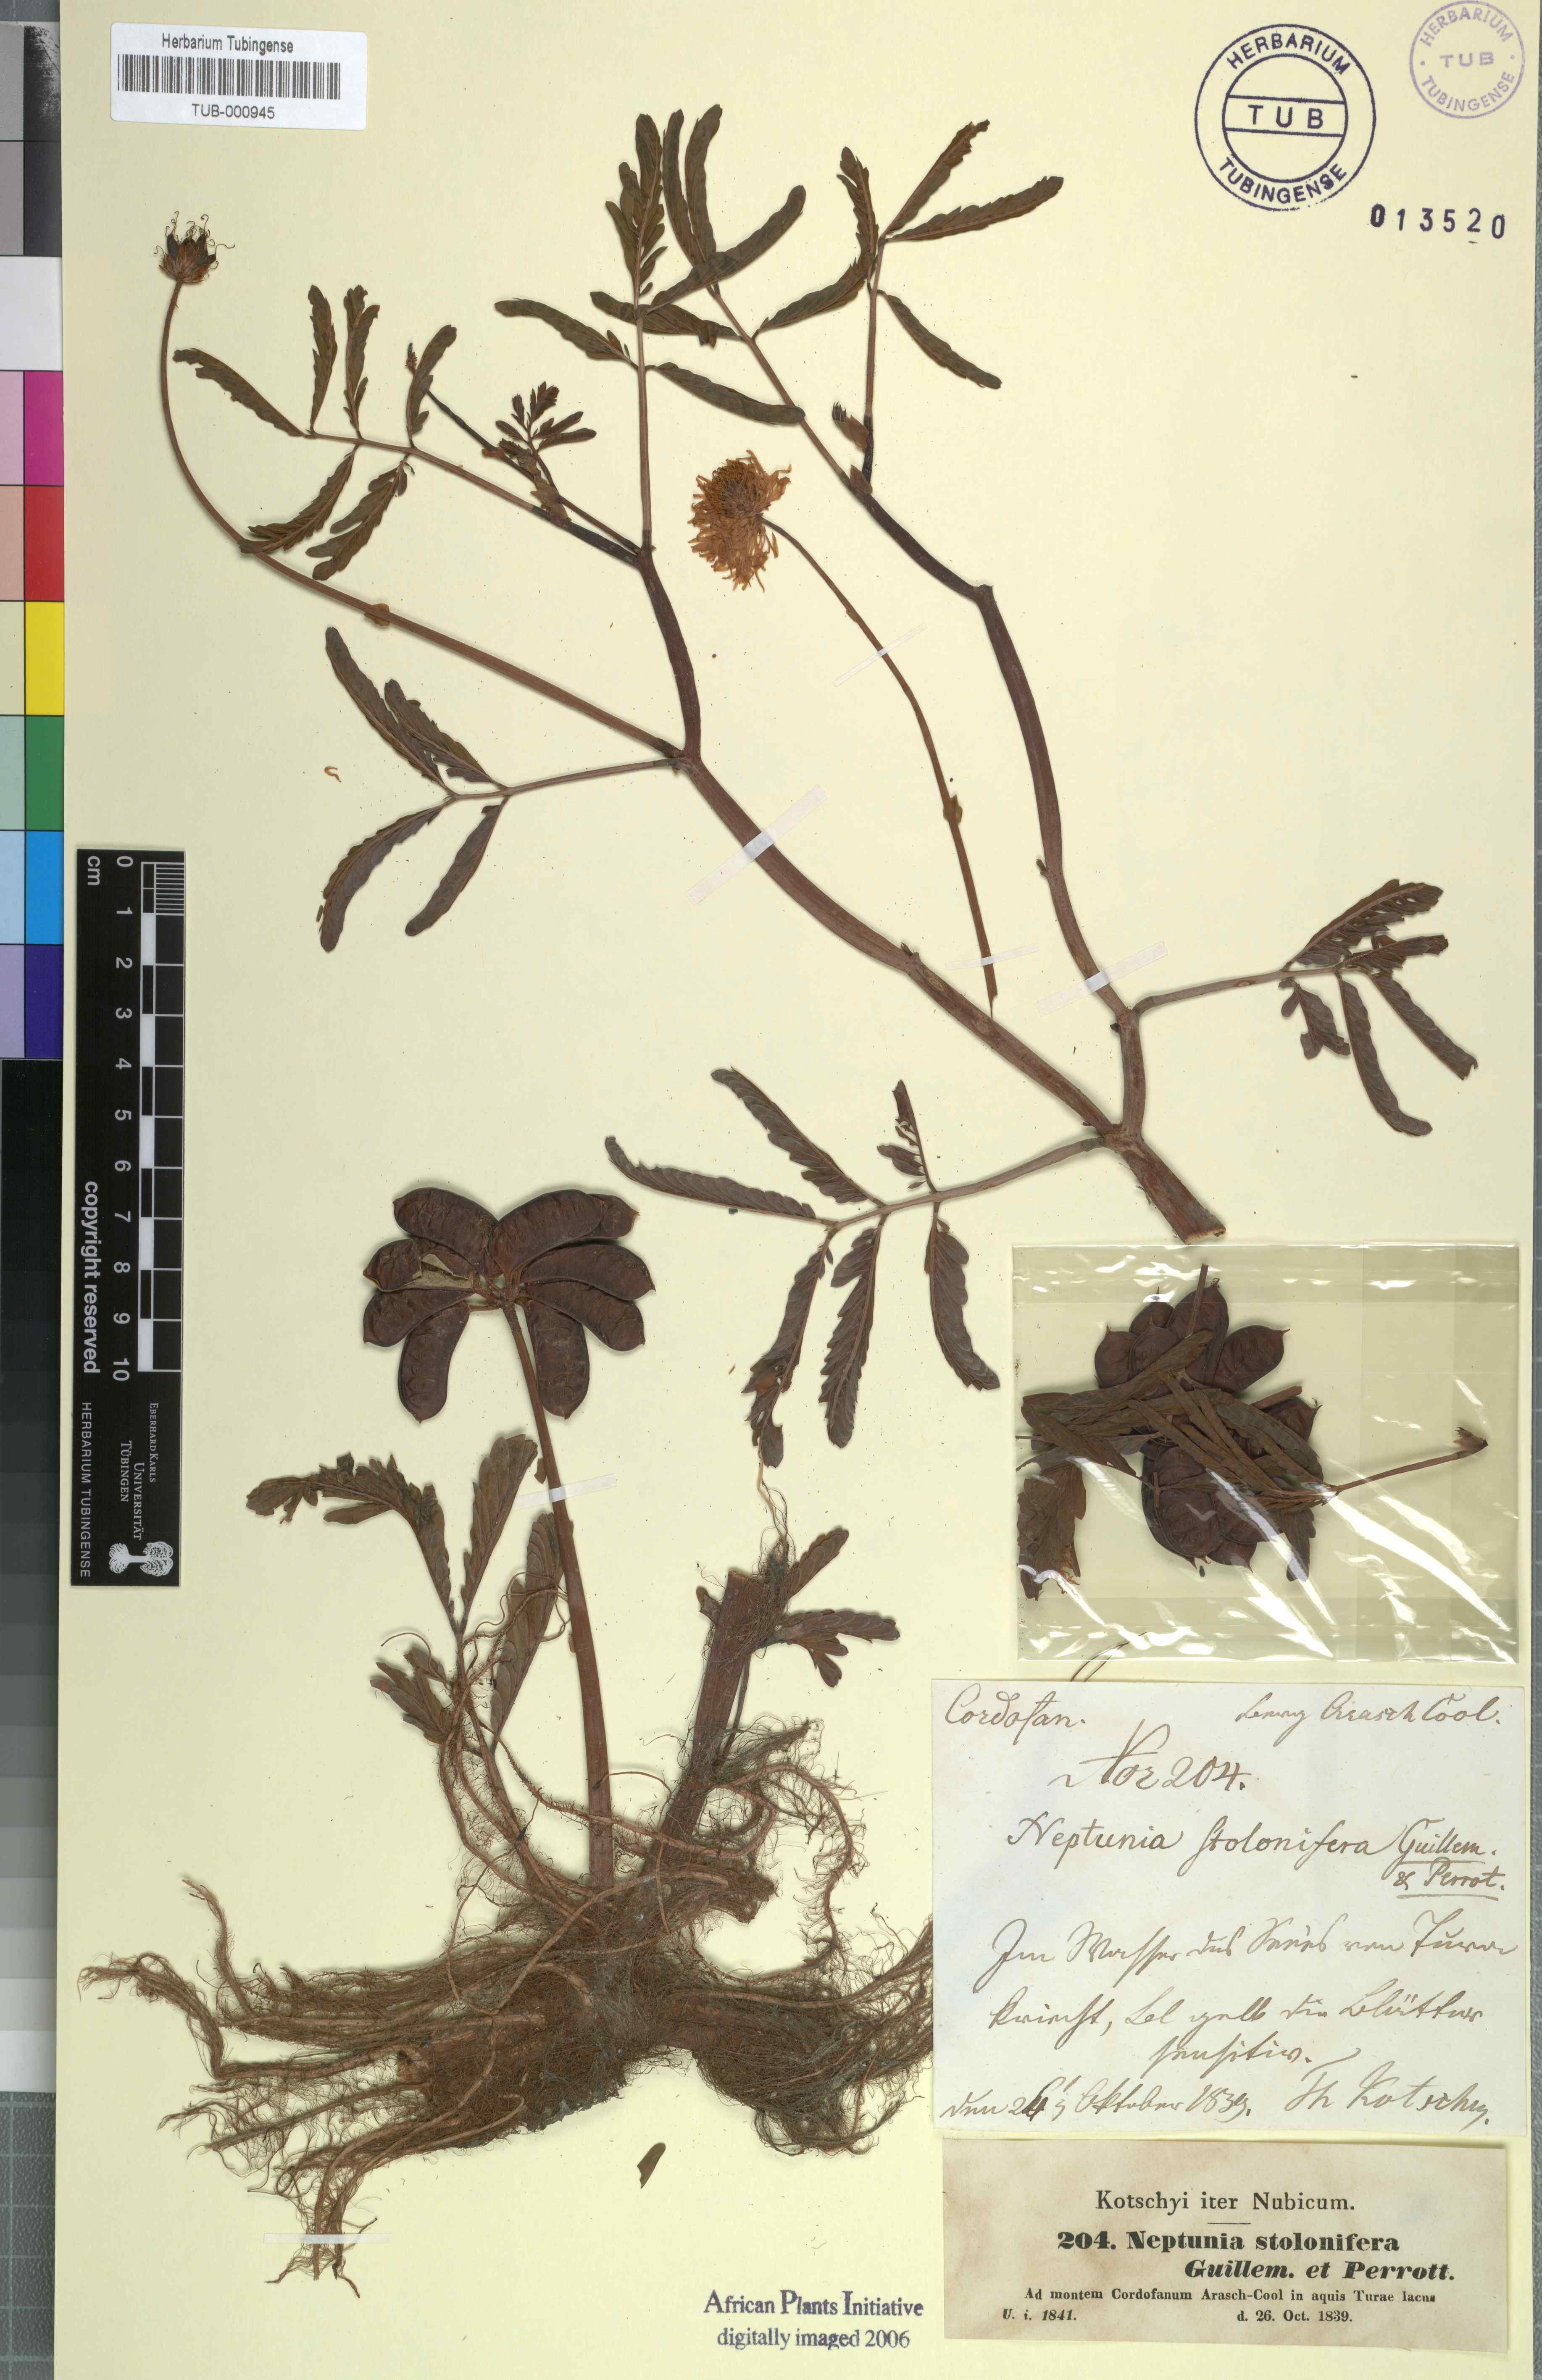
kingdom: Plantae
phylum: Tracheophyta
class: Magnoliopsida
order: Fabales
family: Fabaceae
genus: Neptunia
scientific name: Neptunia prostrata
